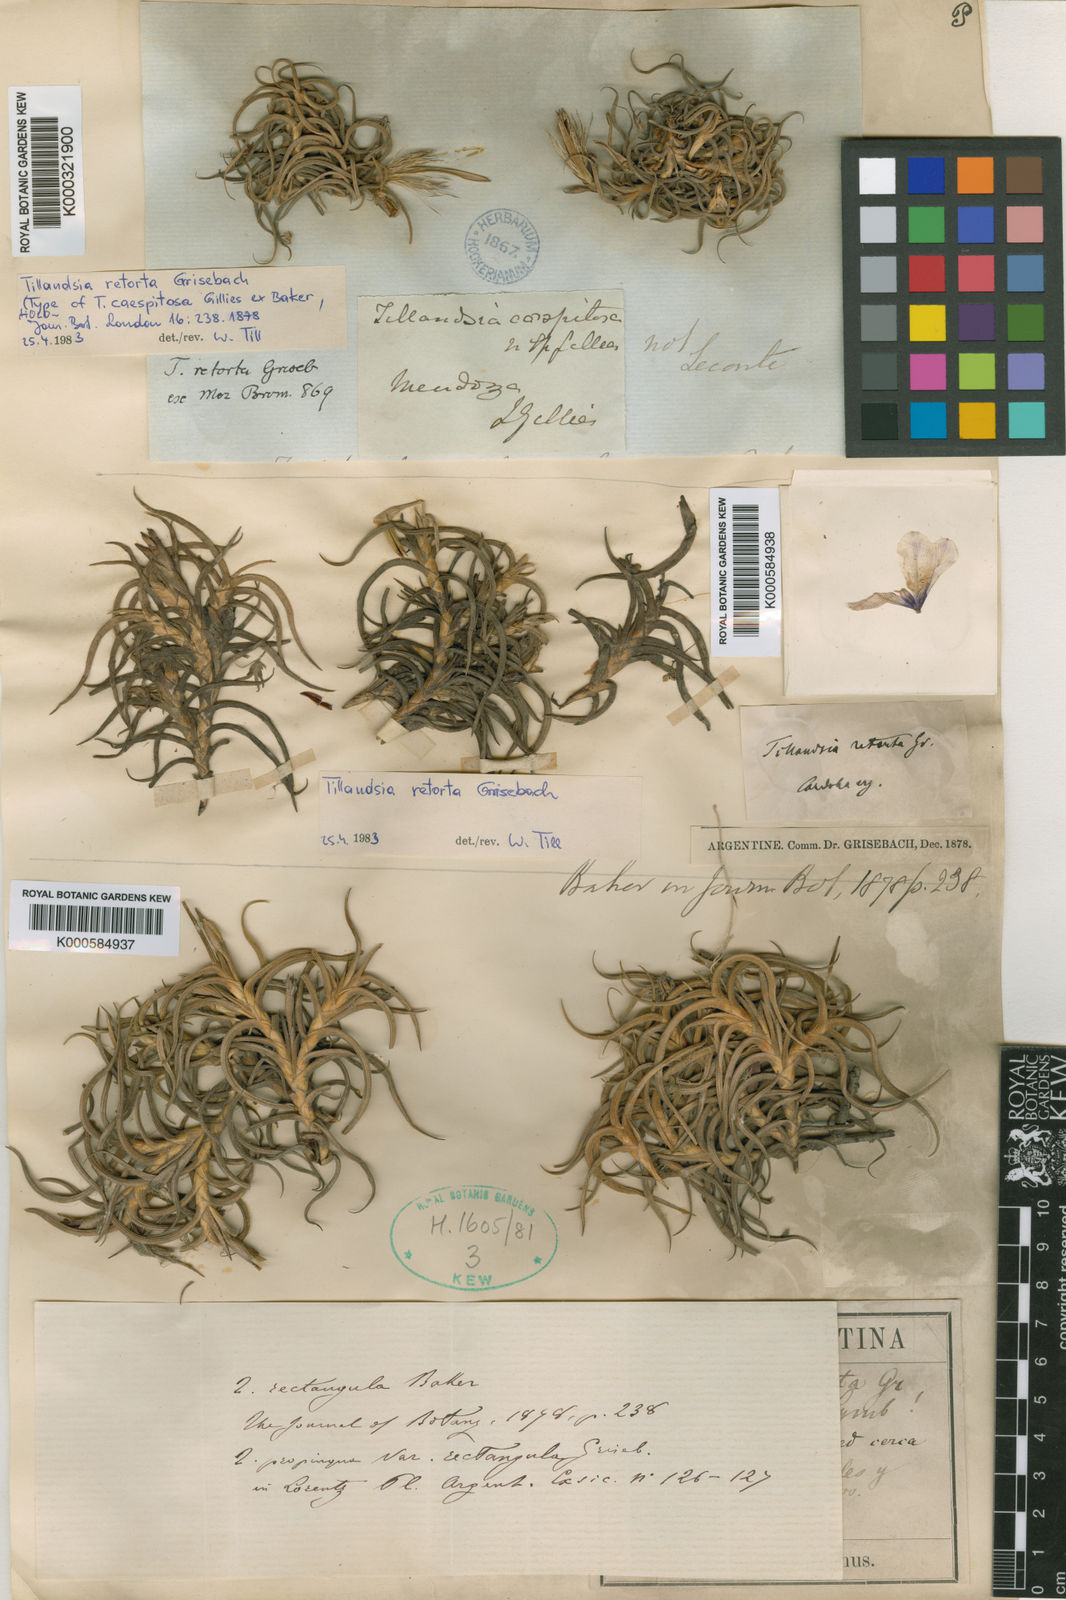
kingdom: Plantae
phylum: Tracheophyta
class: Liliopsida
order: Poales
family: Bromeliaceae
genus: Tillandsia
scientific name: Tillandsia
